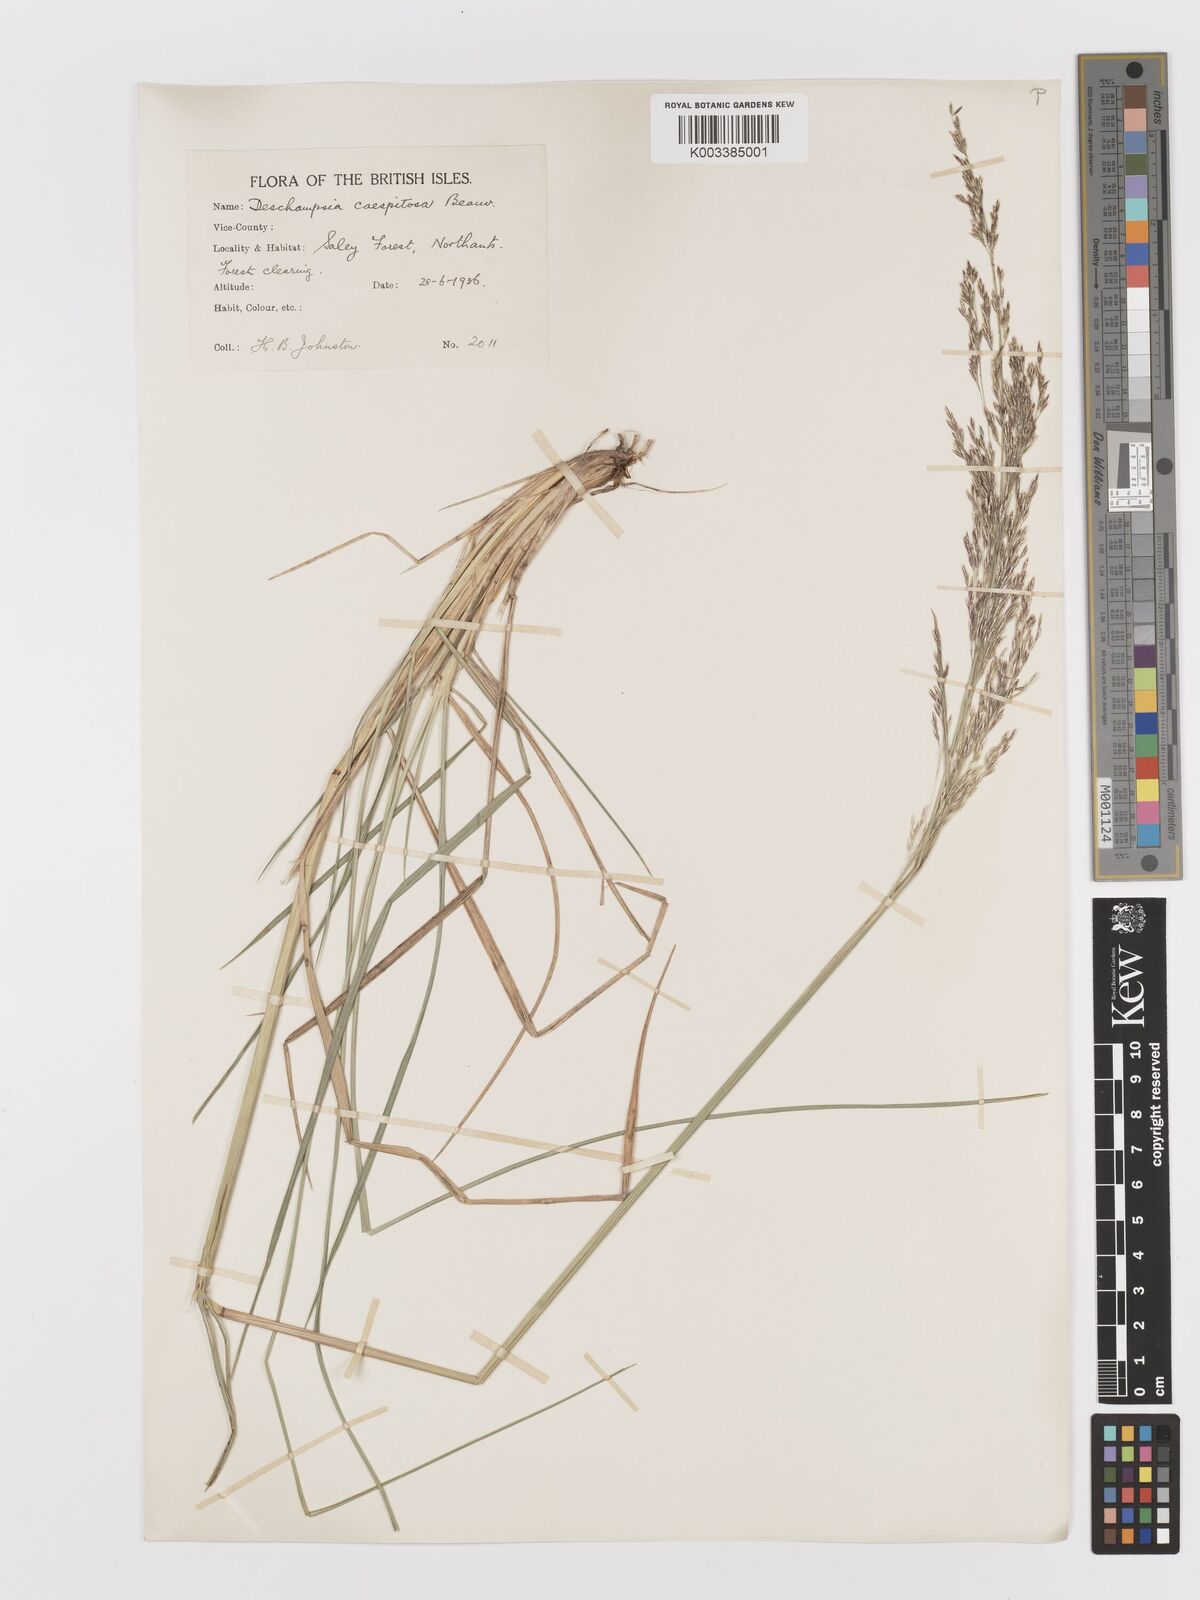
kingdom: Plantae
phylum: Tracheophyta
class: Liliopsida
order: Poales
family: Poaceae
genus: Deschampsia
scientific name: Deschampsia cespitosa
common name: Tufted hair-grass
